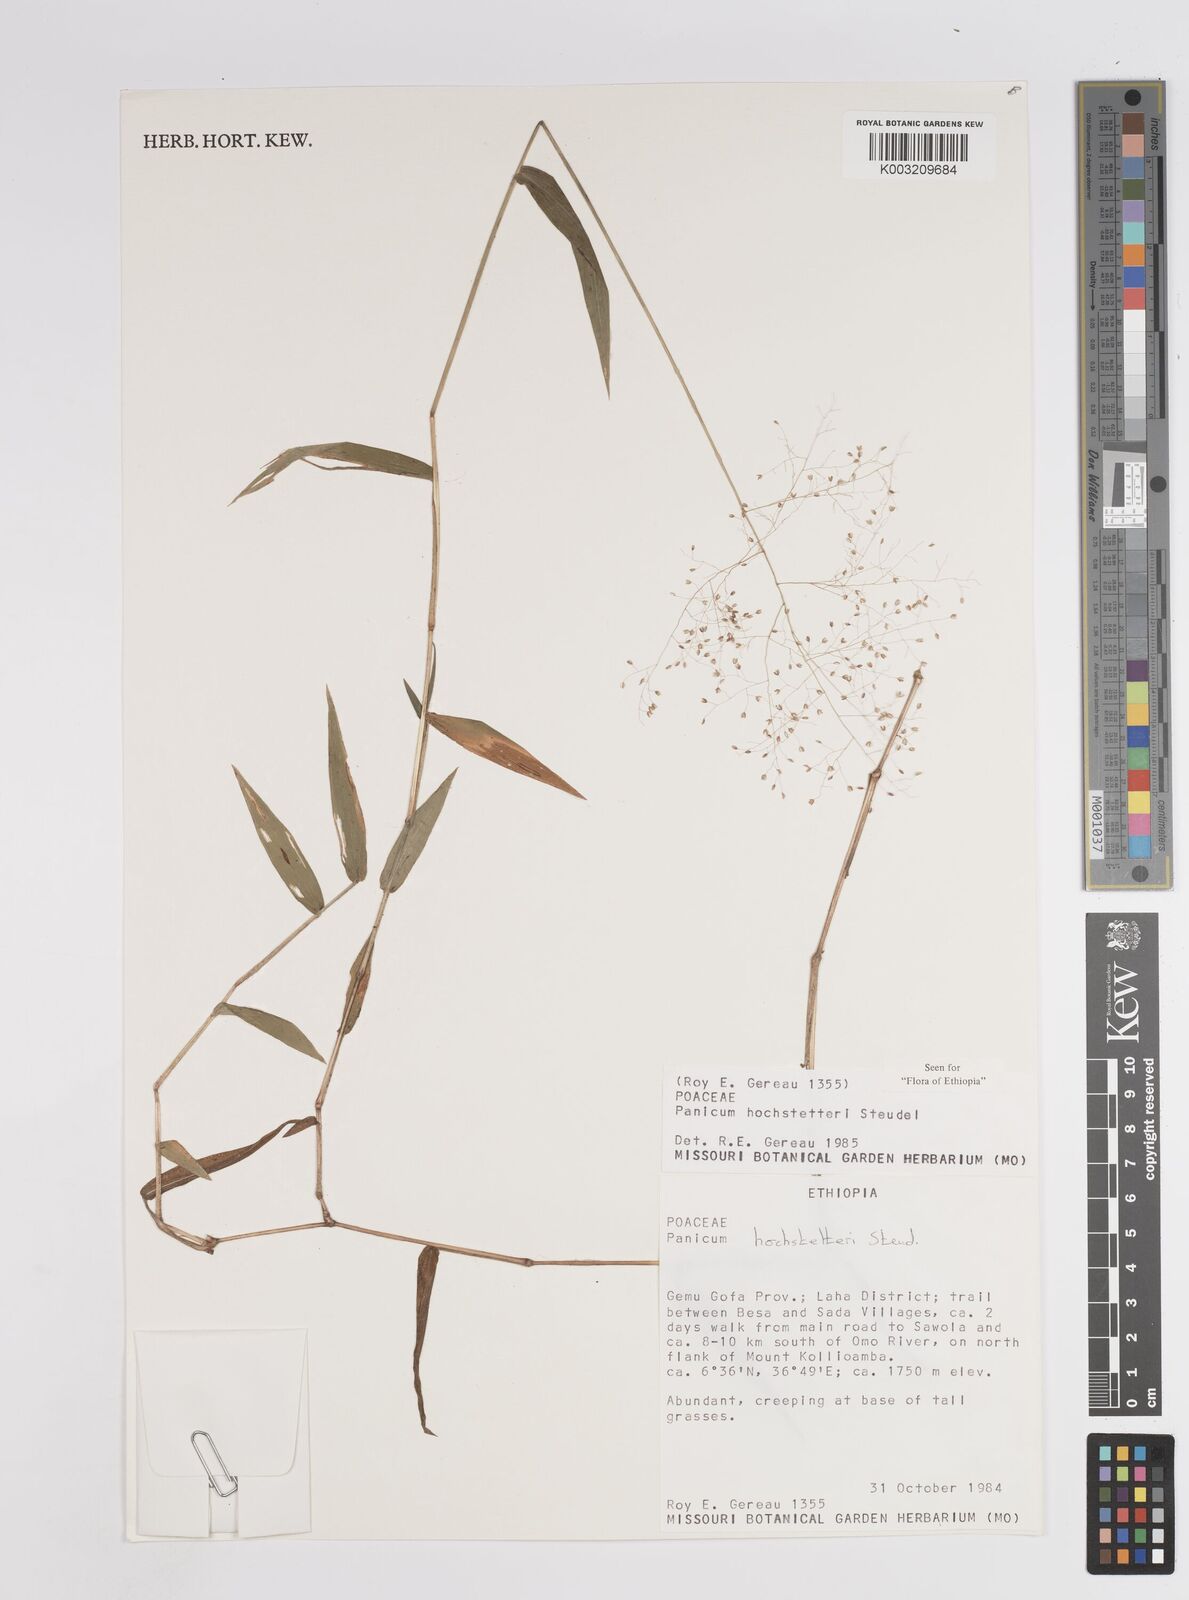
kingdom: Plantae
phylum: Tracheophyta
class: Liliopsida
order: Poales
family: Poaceae
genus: Panicum
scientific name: Panicum hochstetteri
